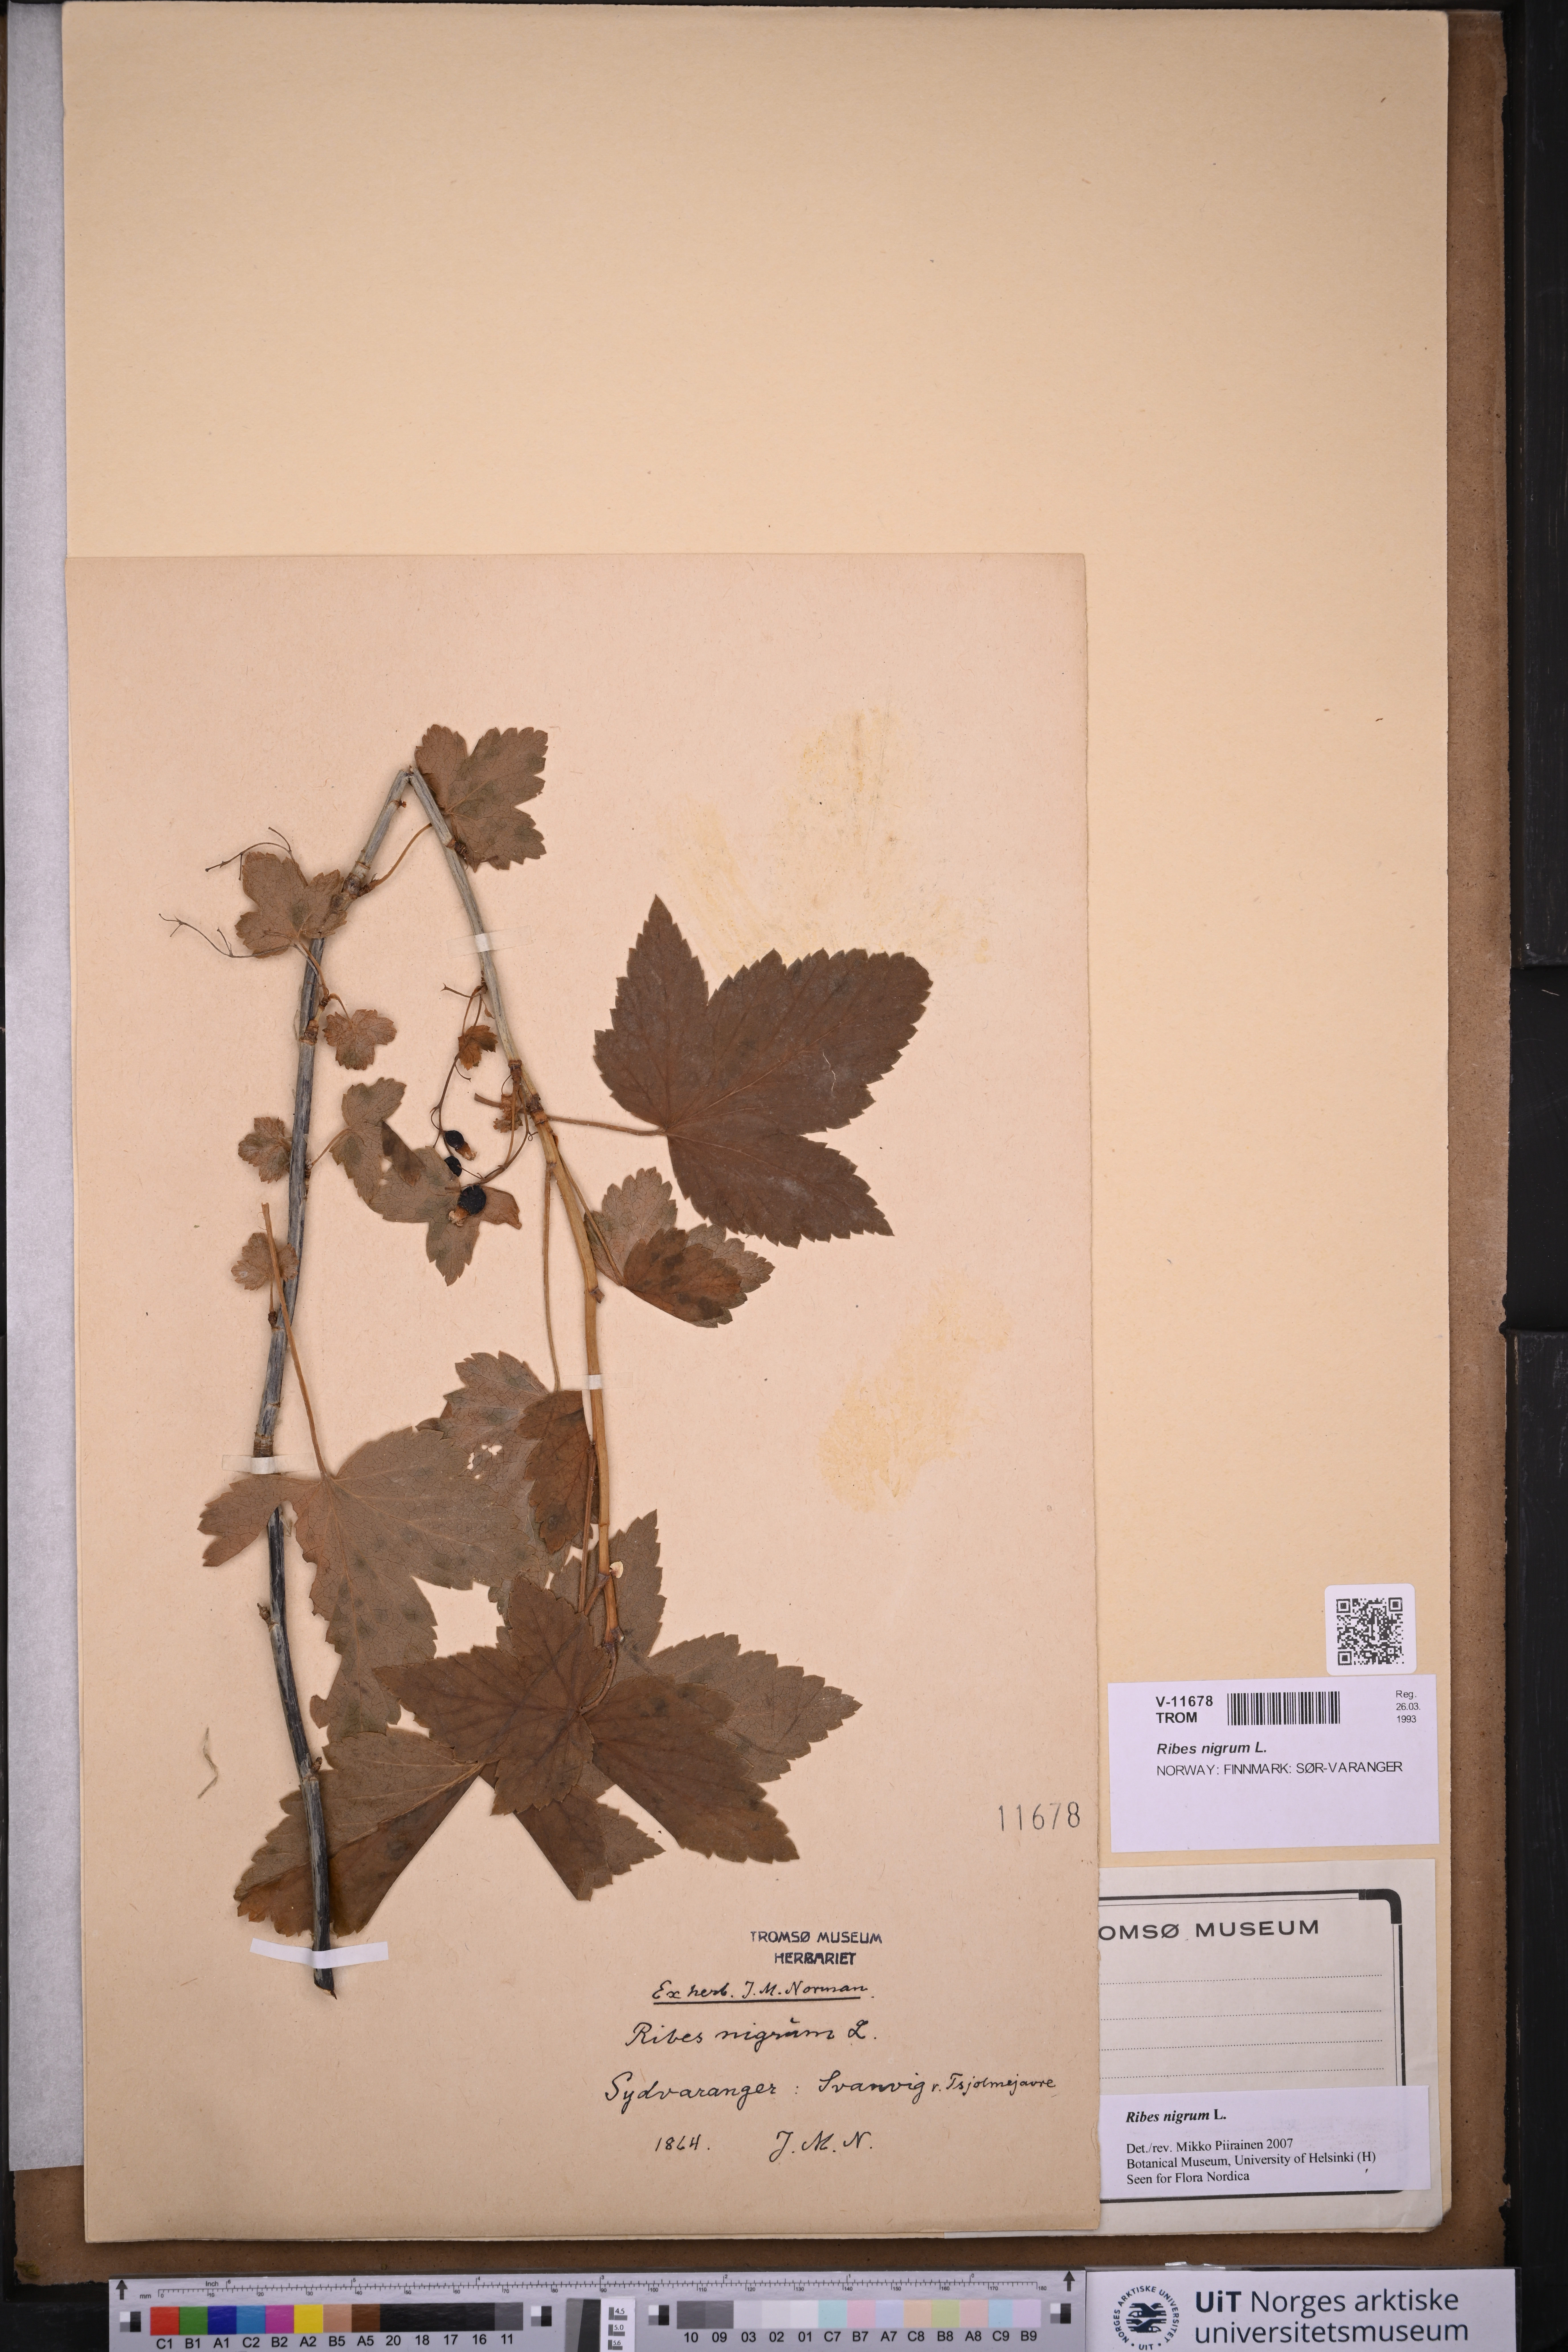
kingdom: Plantae
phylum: Tracheophyta
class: Magnoliopsida
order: Saxifragales
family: Grossulariaceae
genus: Ribes
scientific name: Ribes nigrum
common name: Black currant
